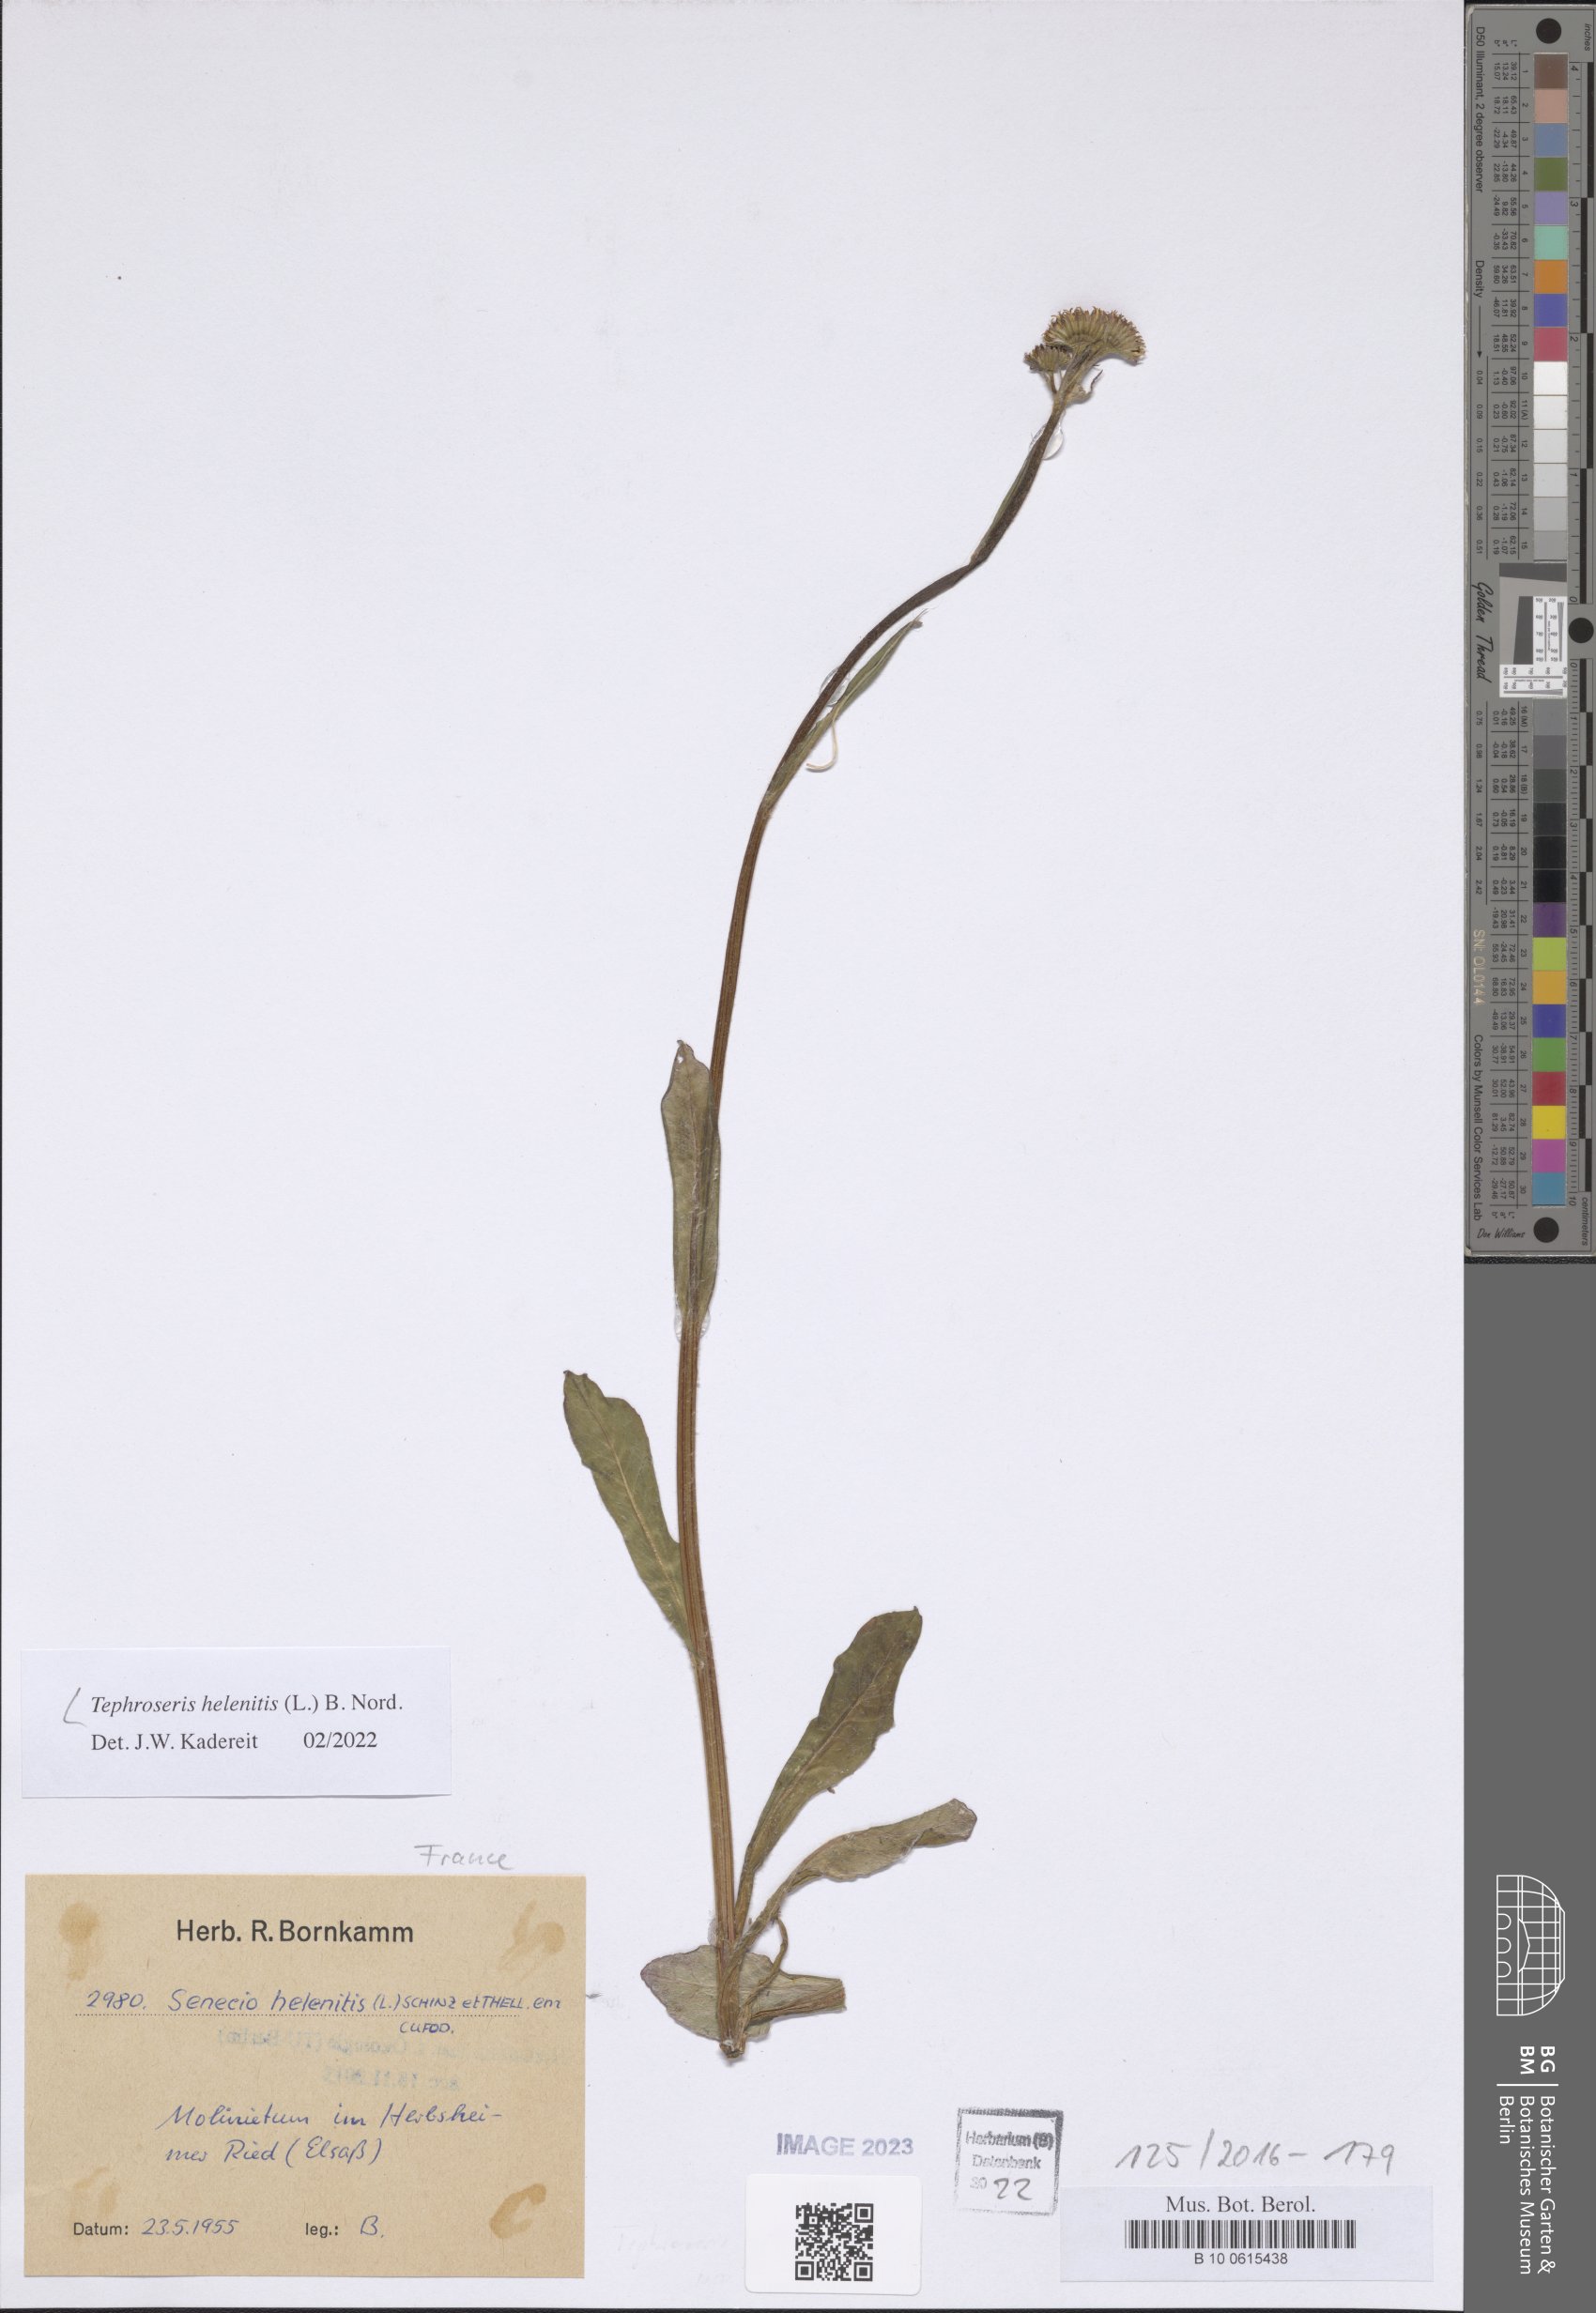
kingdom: Plantae
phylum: Tracheophyta
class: Magnoliopsida
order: Asterales
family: Asteraceae
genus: Tephroseris
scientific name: Tephroseris helenitis
